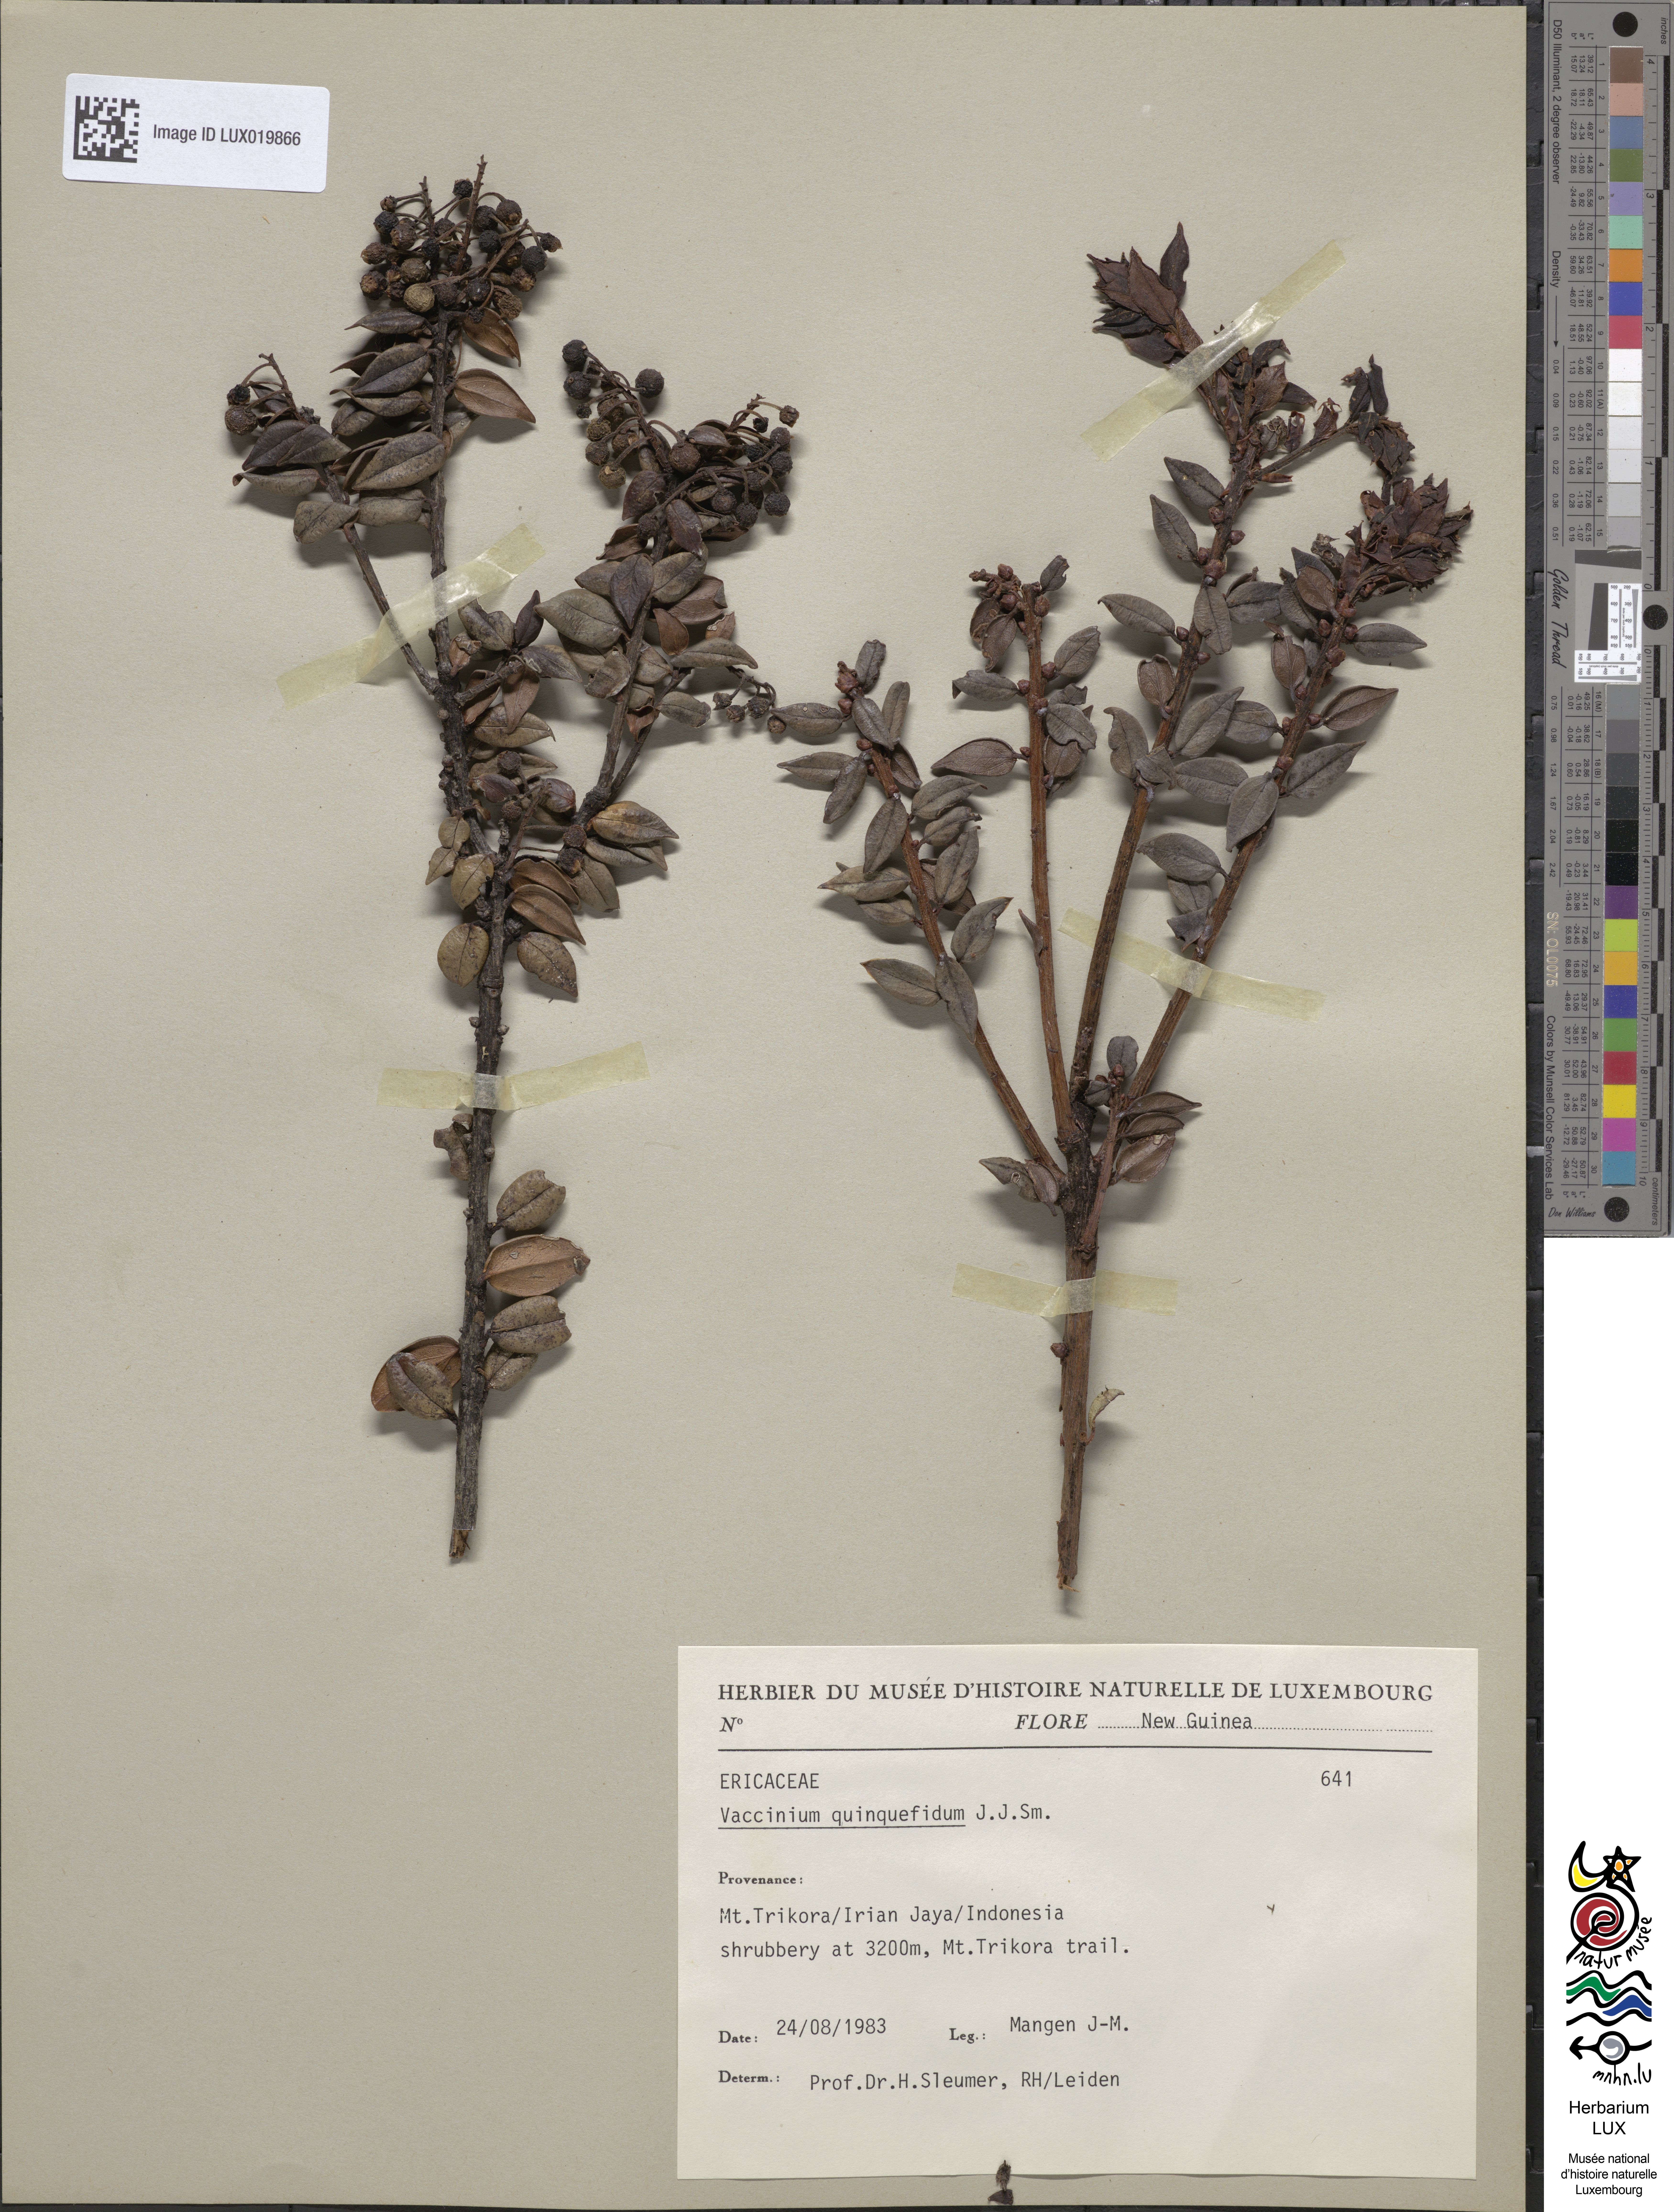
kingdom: Plantae
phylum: Tracheophyta
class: Magnoliopsida
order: Ericales
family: Ericaceae
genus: Vaccinium
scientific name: Vaccinium quinquefidum
